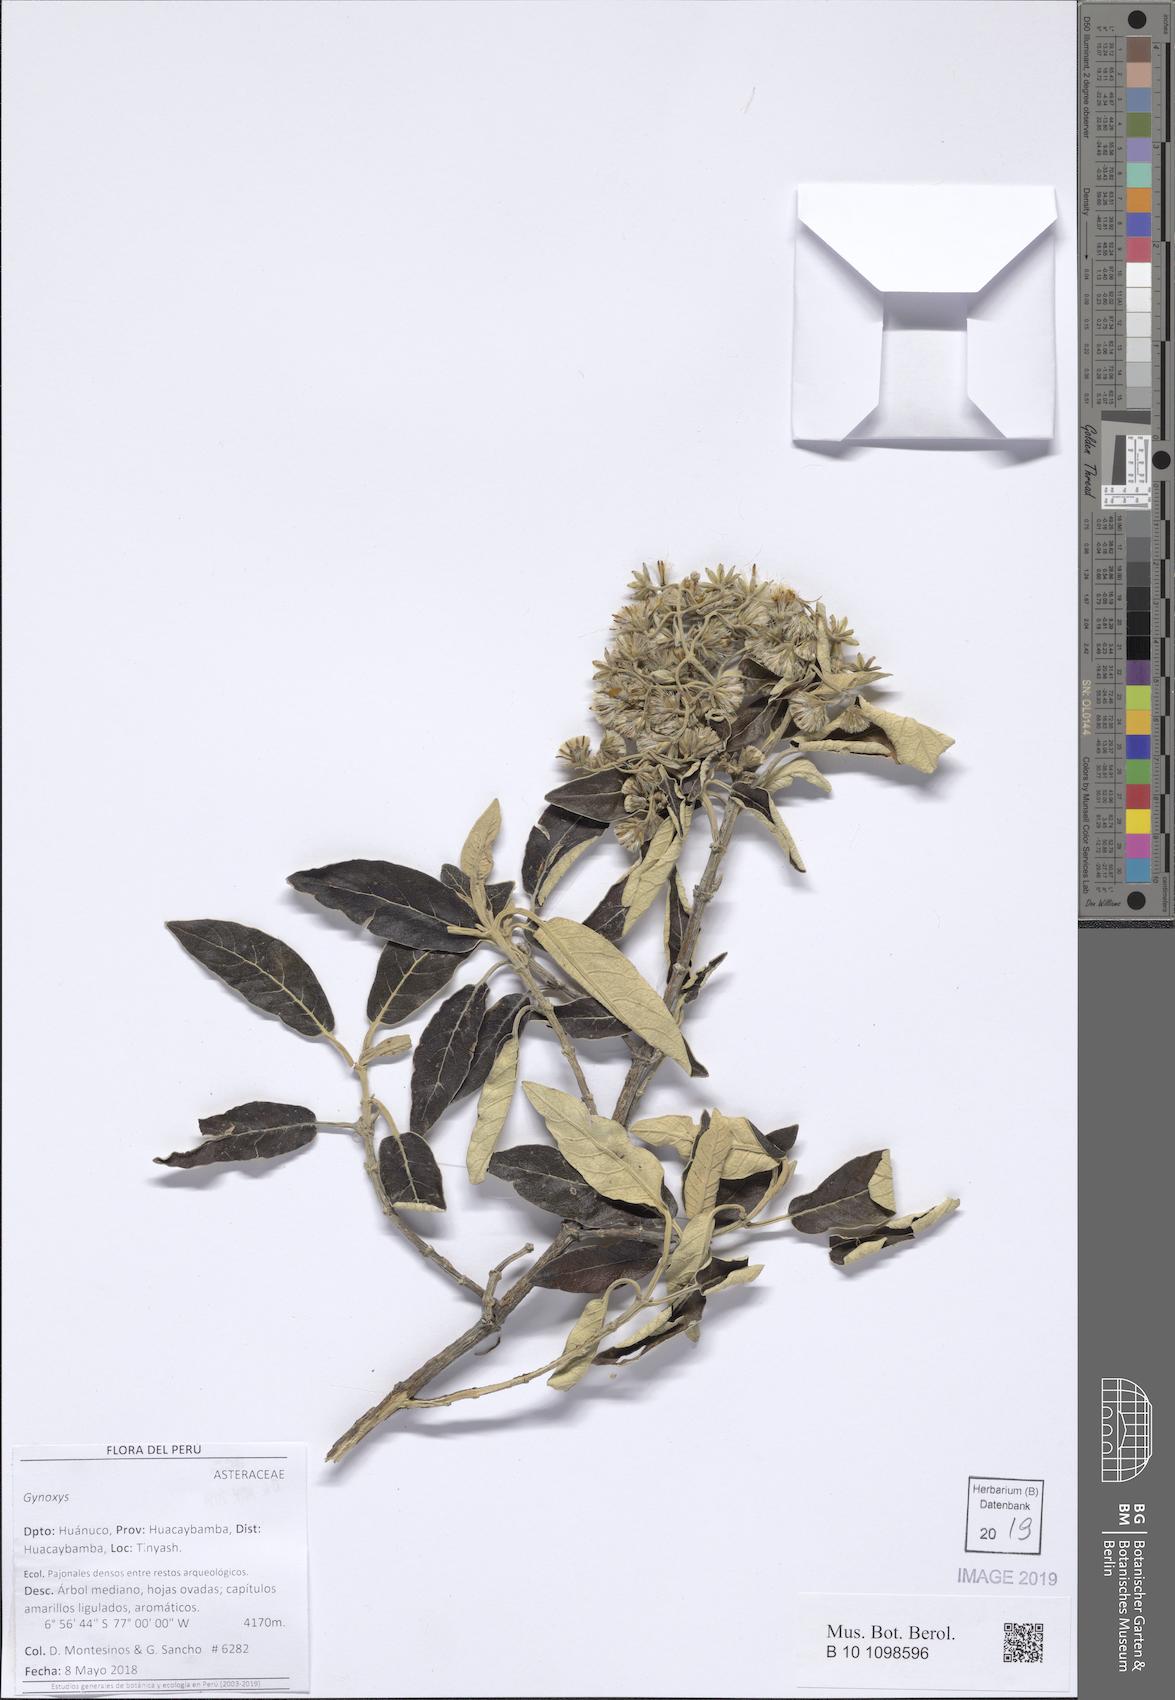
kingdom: Plantae
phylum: Tracheophyta
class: Magnoliopsida
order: Asterales
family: Asteraceae
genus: Gynoxys
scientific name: Gynoxys cerrateana
